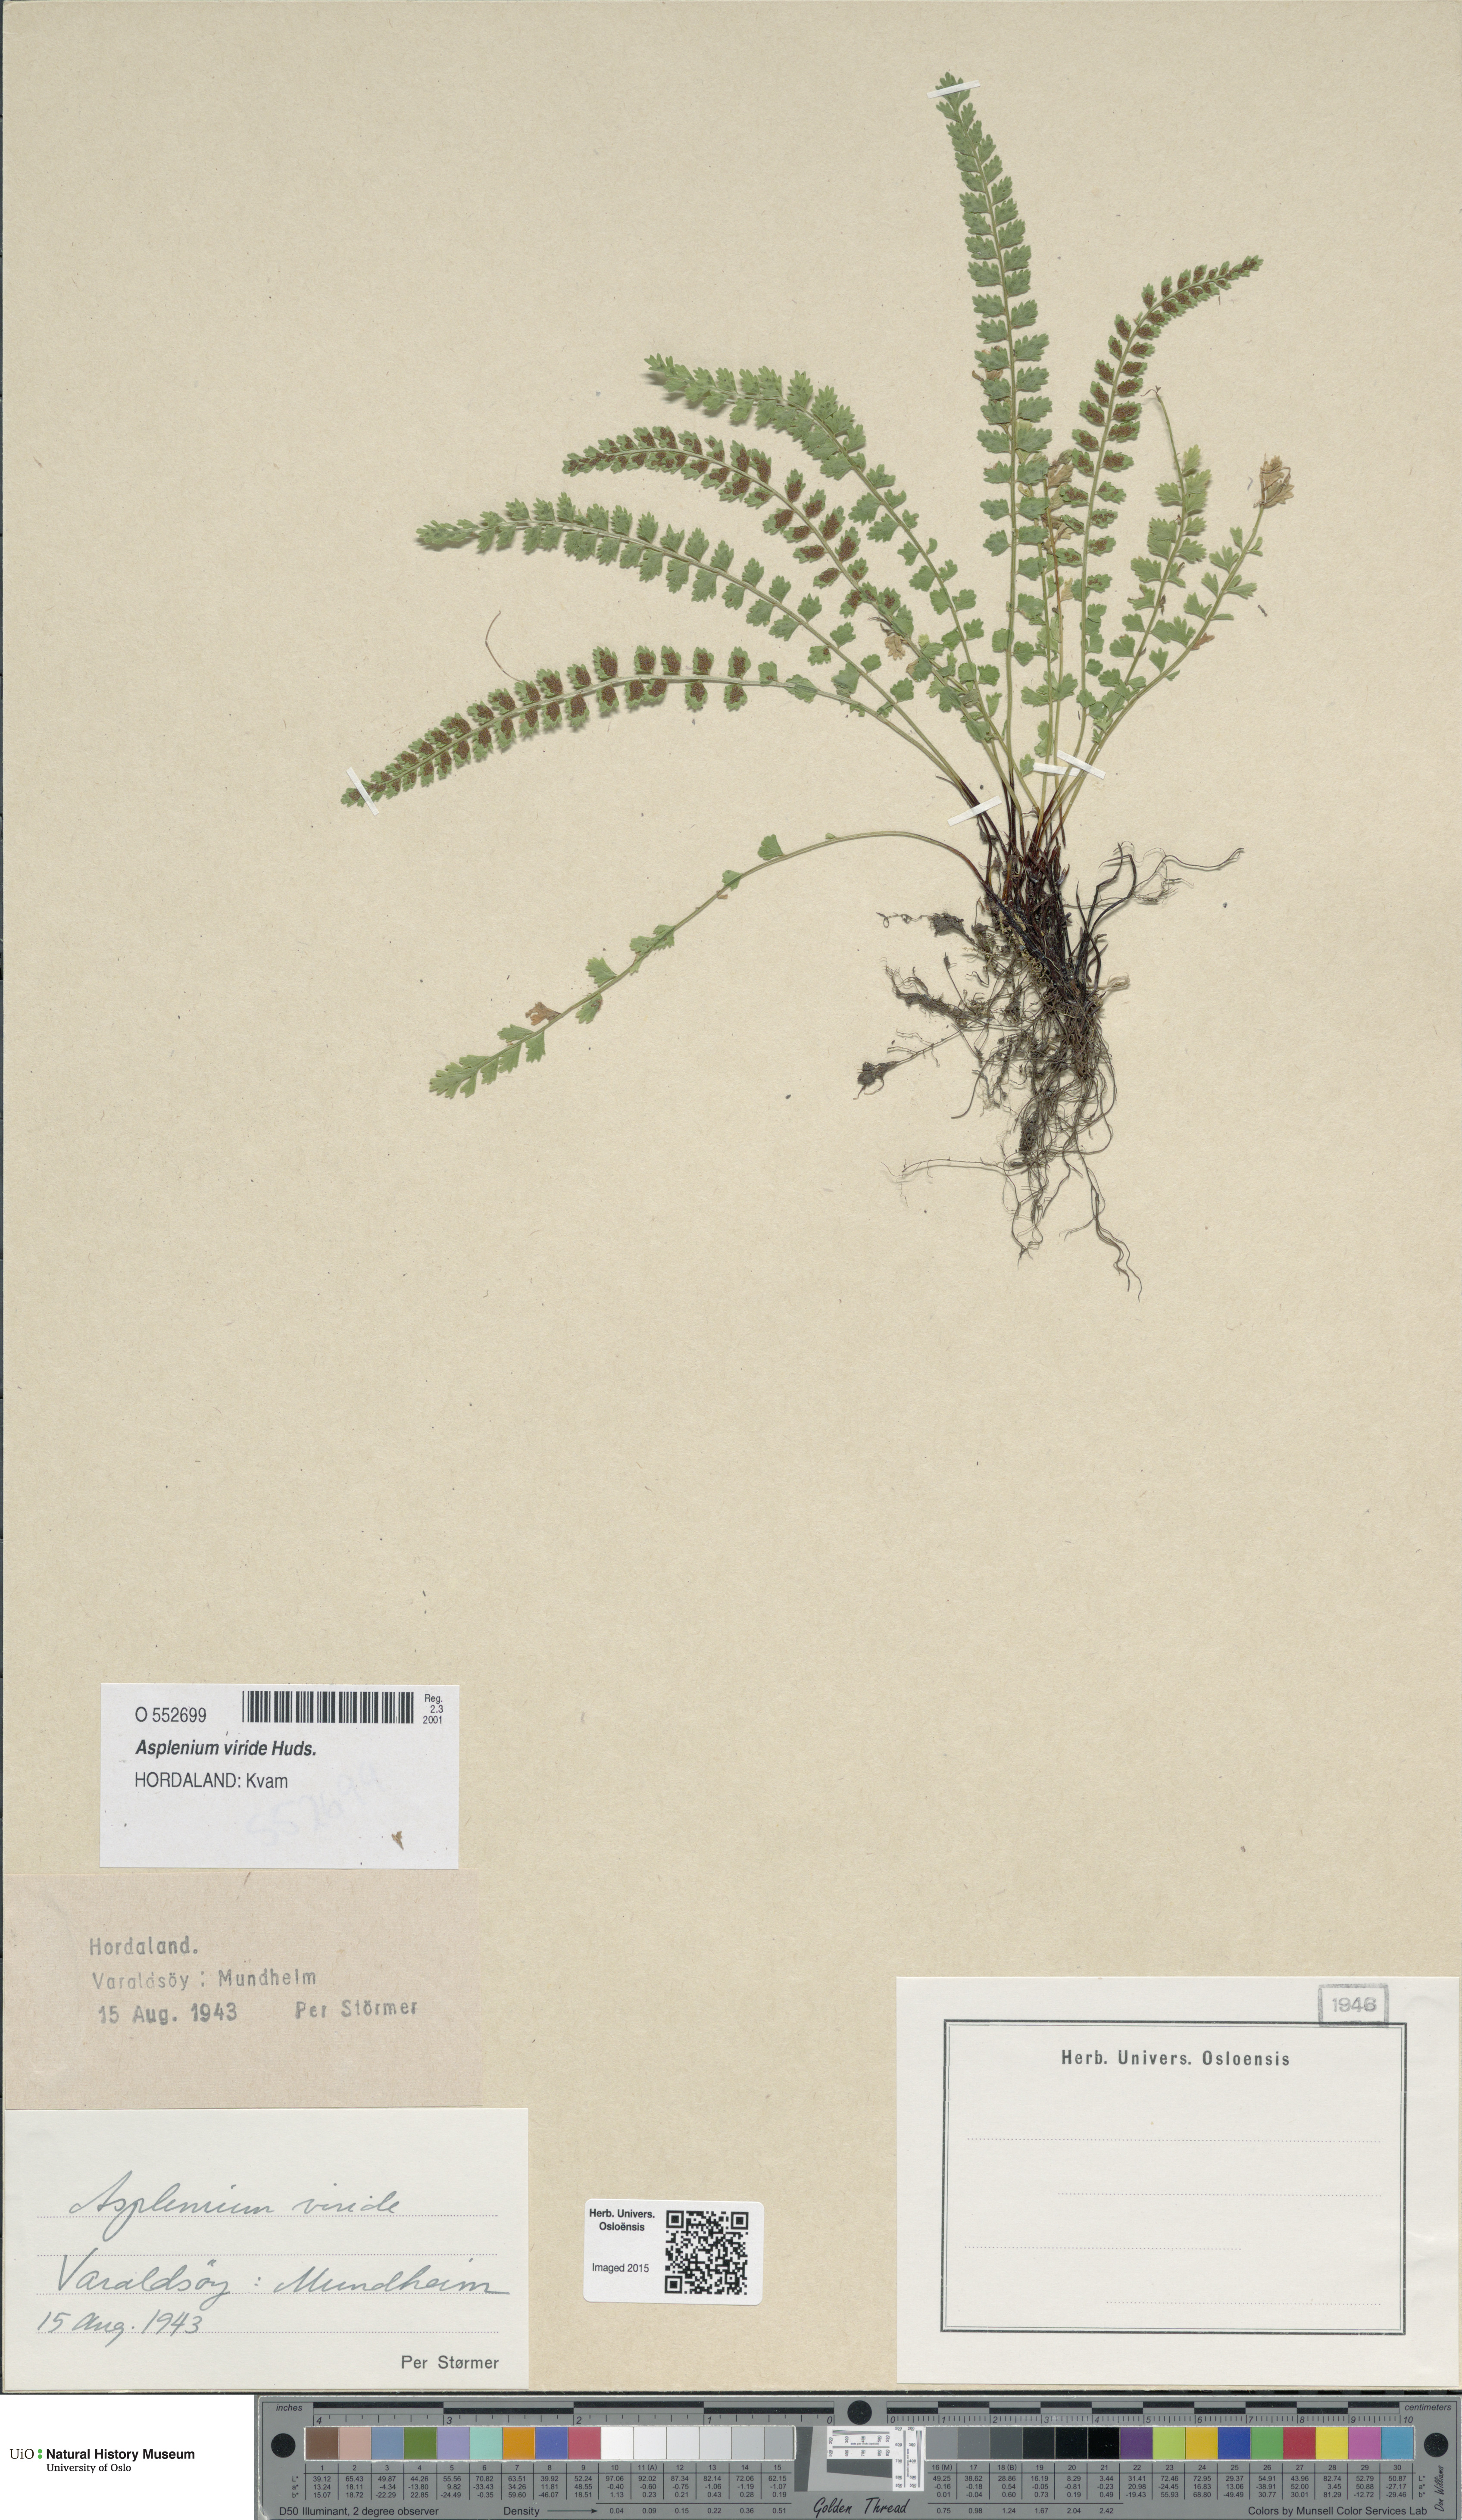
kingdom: Plantae
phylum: Tracheophyta
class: Polypodiopsida
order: Polypodiales
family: Aspleniaceae
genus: Asplenium
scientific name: Asplenium viride
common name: Green spleenwort
